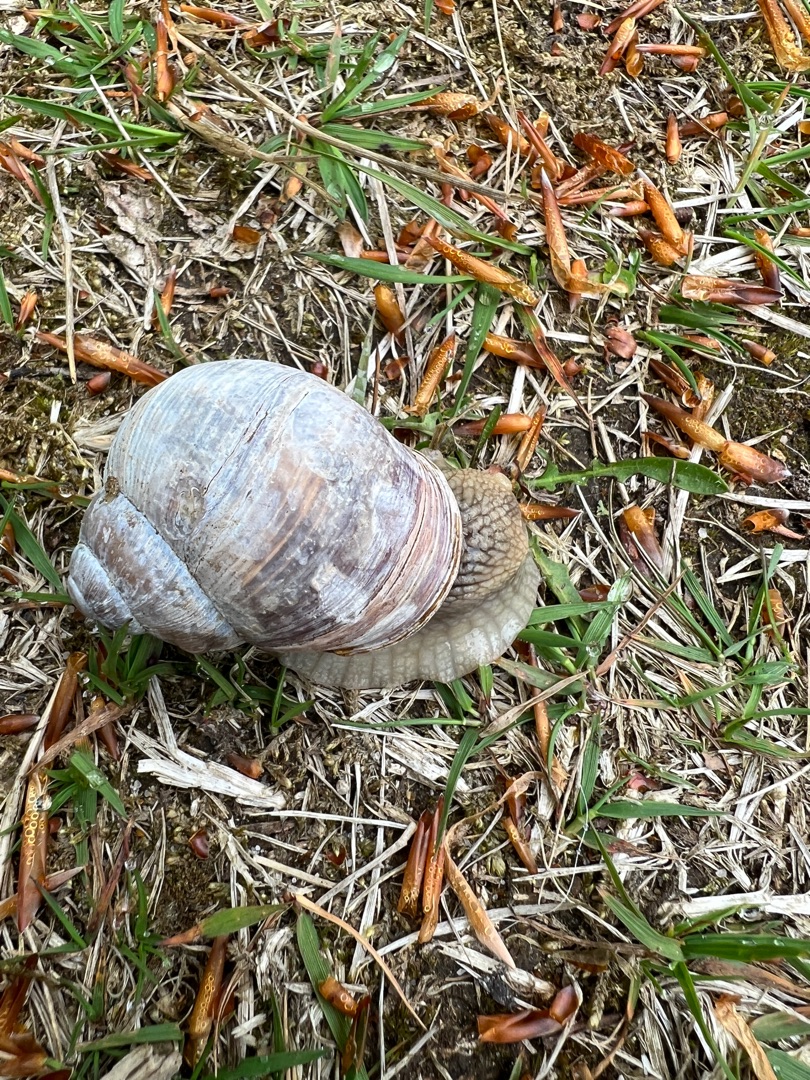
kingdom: Animalia
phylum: Mollusca
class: Gastropoda
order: Stylommatophora
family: Helicidae
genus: Helix
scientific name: Helix pomatia
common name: Vinbjergsnegl
